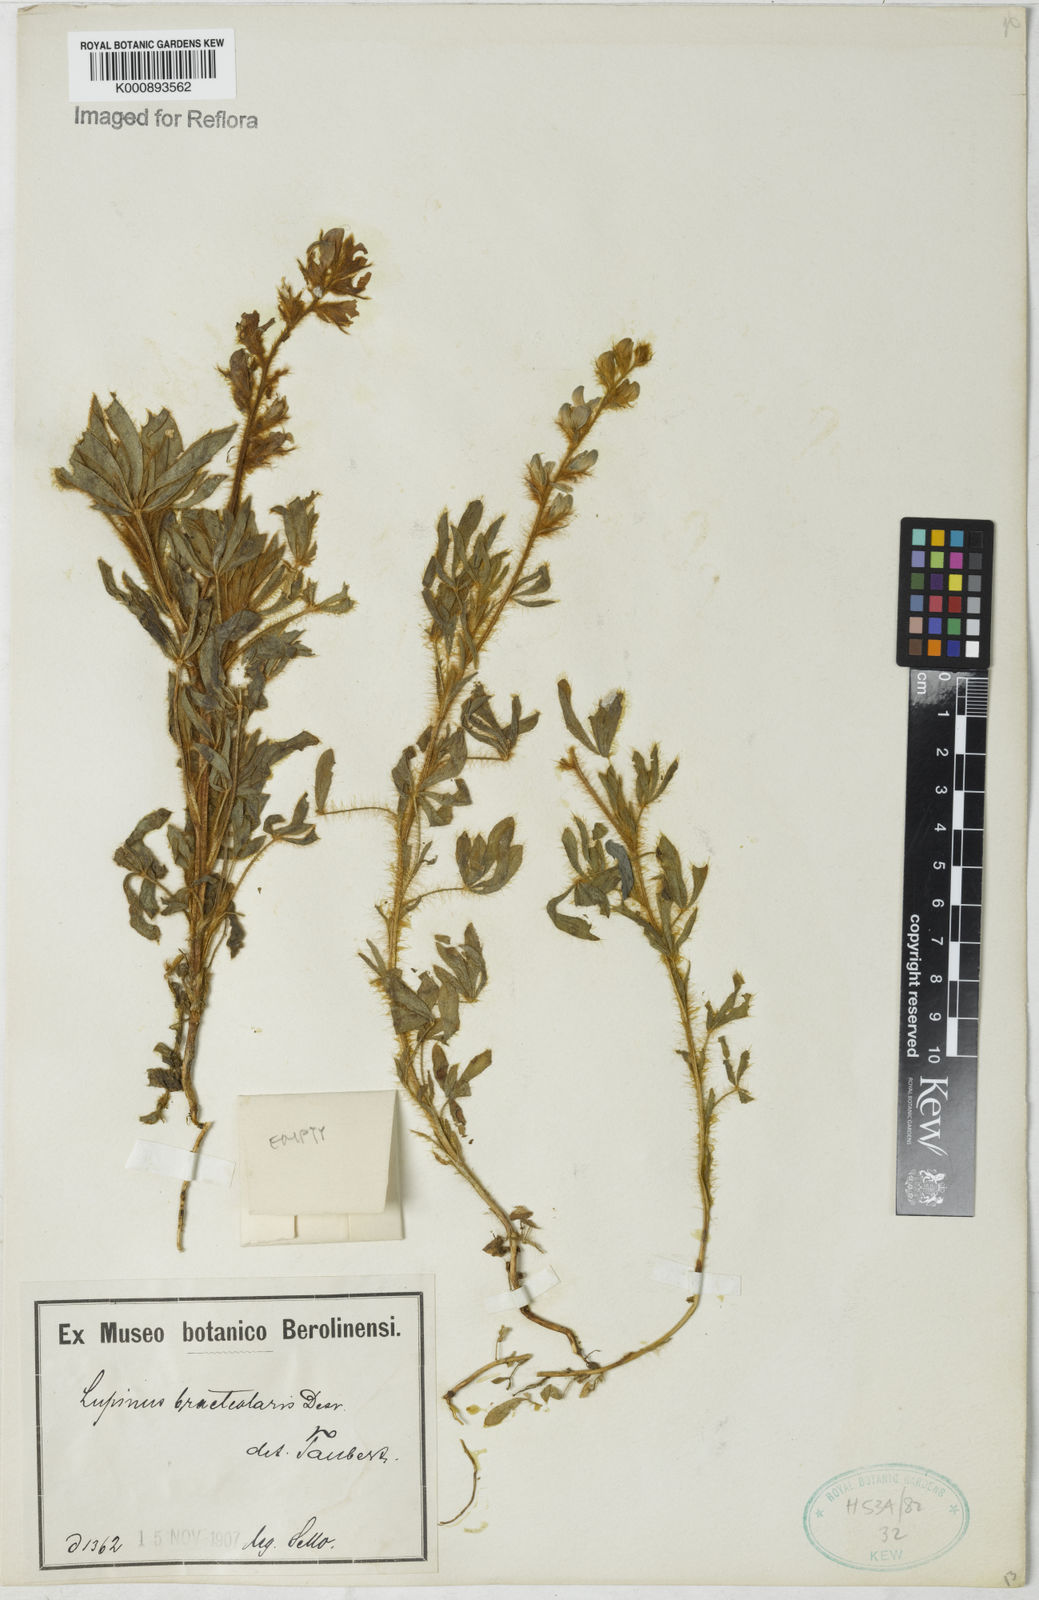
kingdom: Plantae
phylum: Tracheophyta
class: Magnoliopsida
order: Fabales
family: Fabaceae
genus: Lupinus
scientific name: Lupinus bracteolaris
